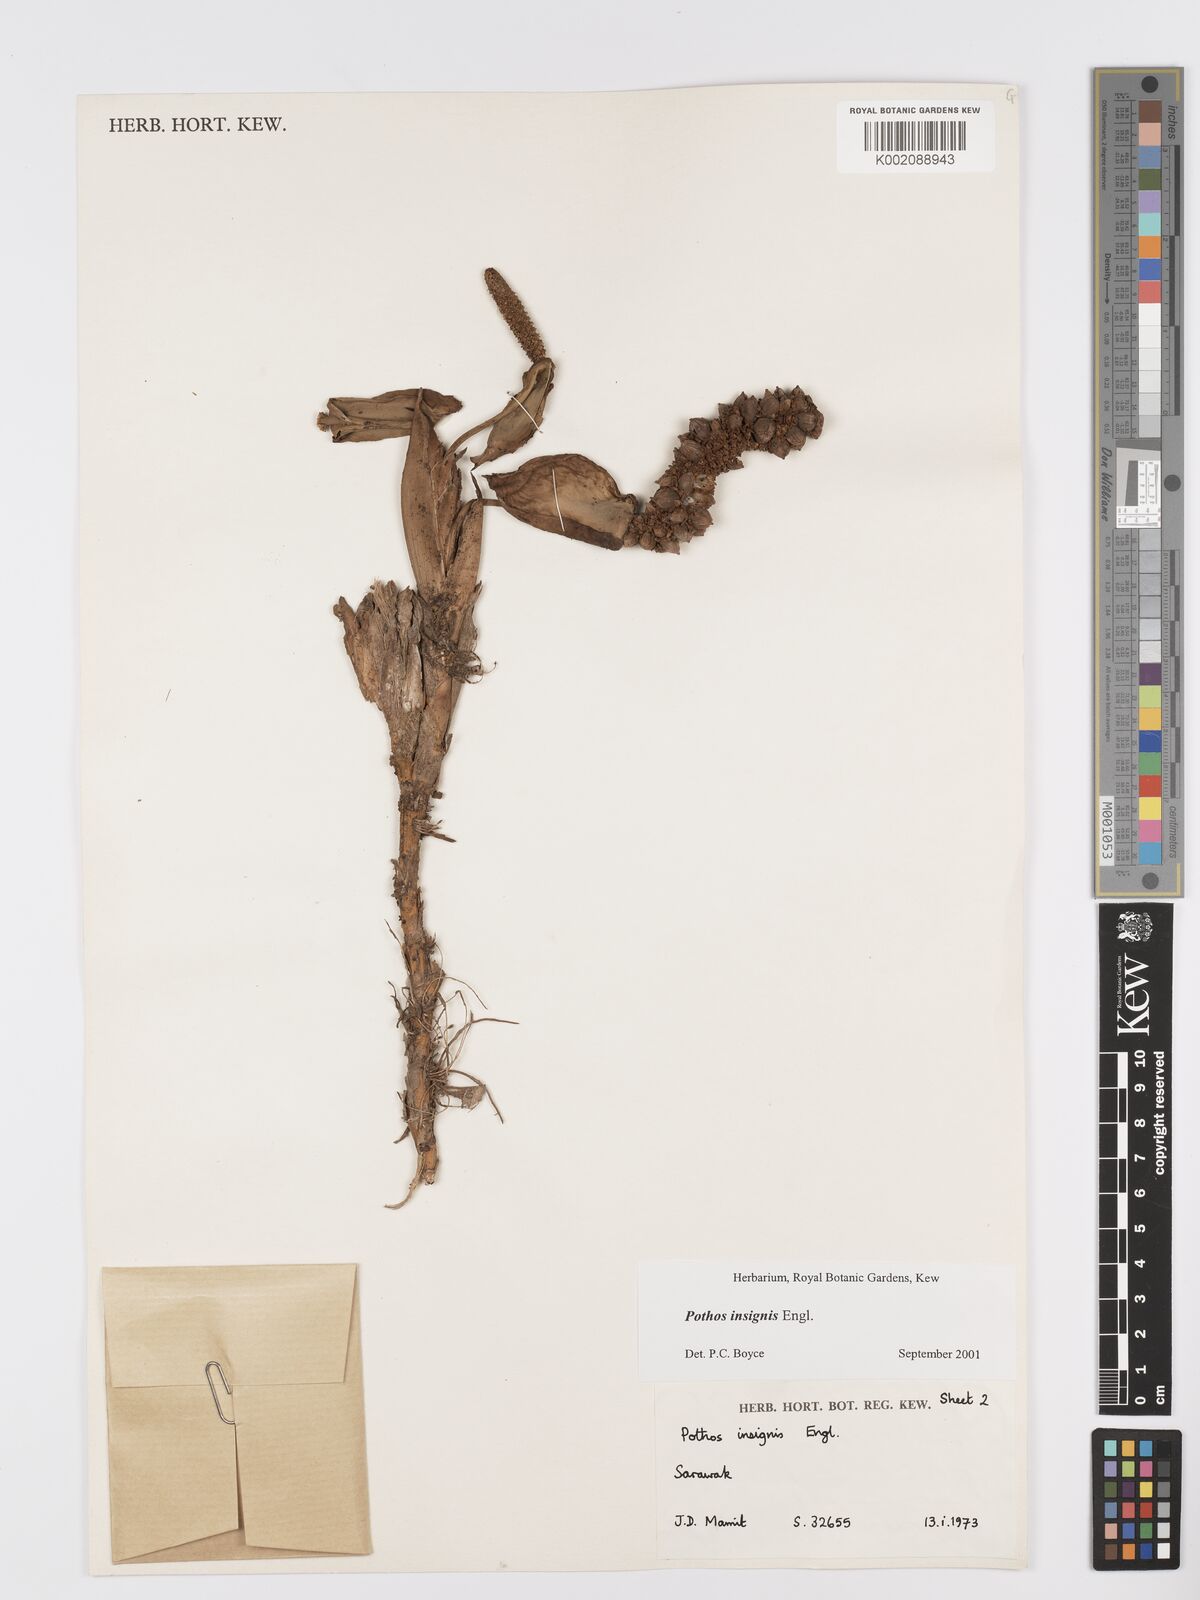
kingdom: Plantae
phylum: Tracheophyta
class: Liliopsida
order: Alismatales
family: Araceae
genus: Pothos
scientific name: Pothos insignis
